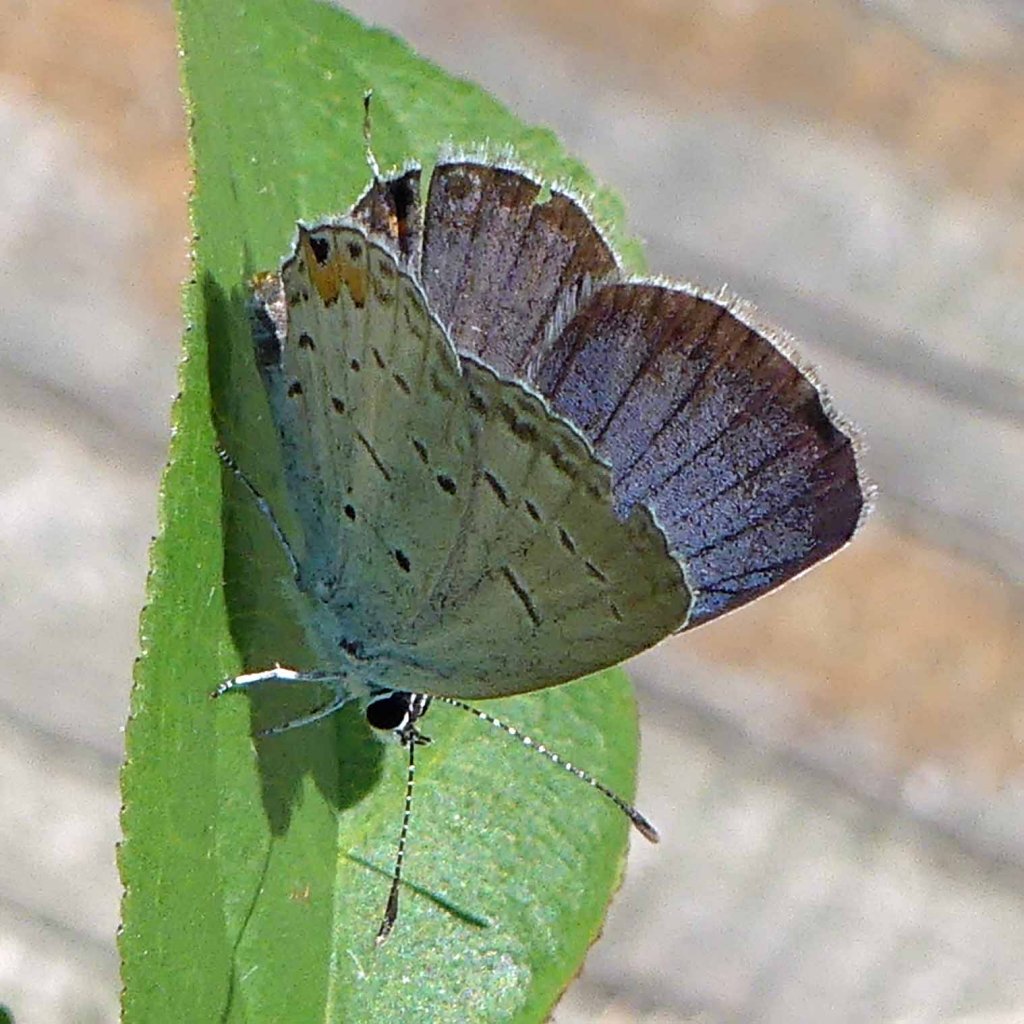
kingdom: Animalia
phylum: Arthropoda
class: Insecta
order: Lepidoptera
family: Lycaenidae
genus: Elkalyce
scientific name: Elkalyce comyntas
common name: Eastern Tailed-Blue
